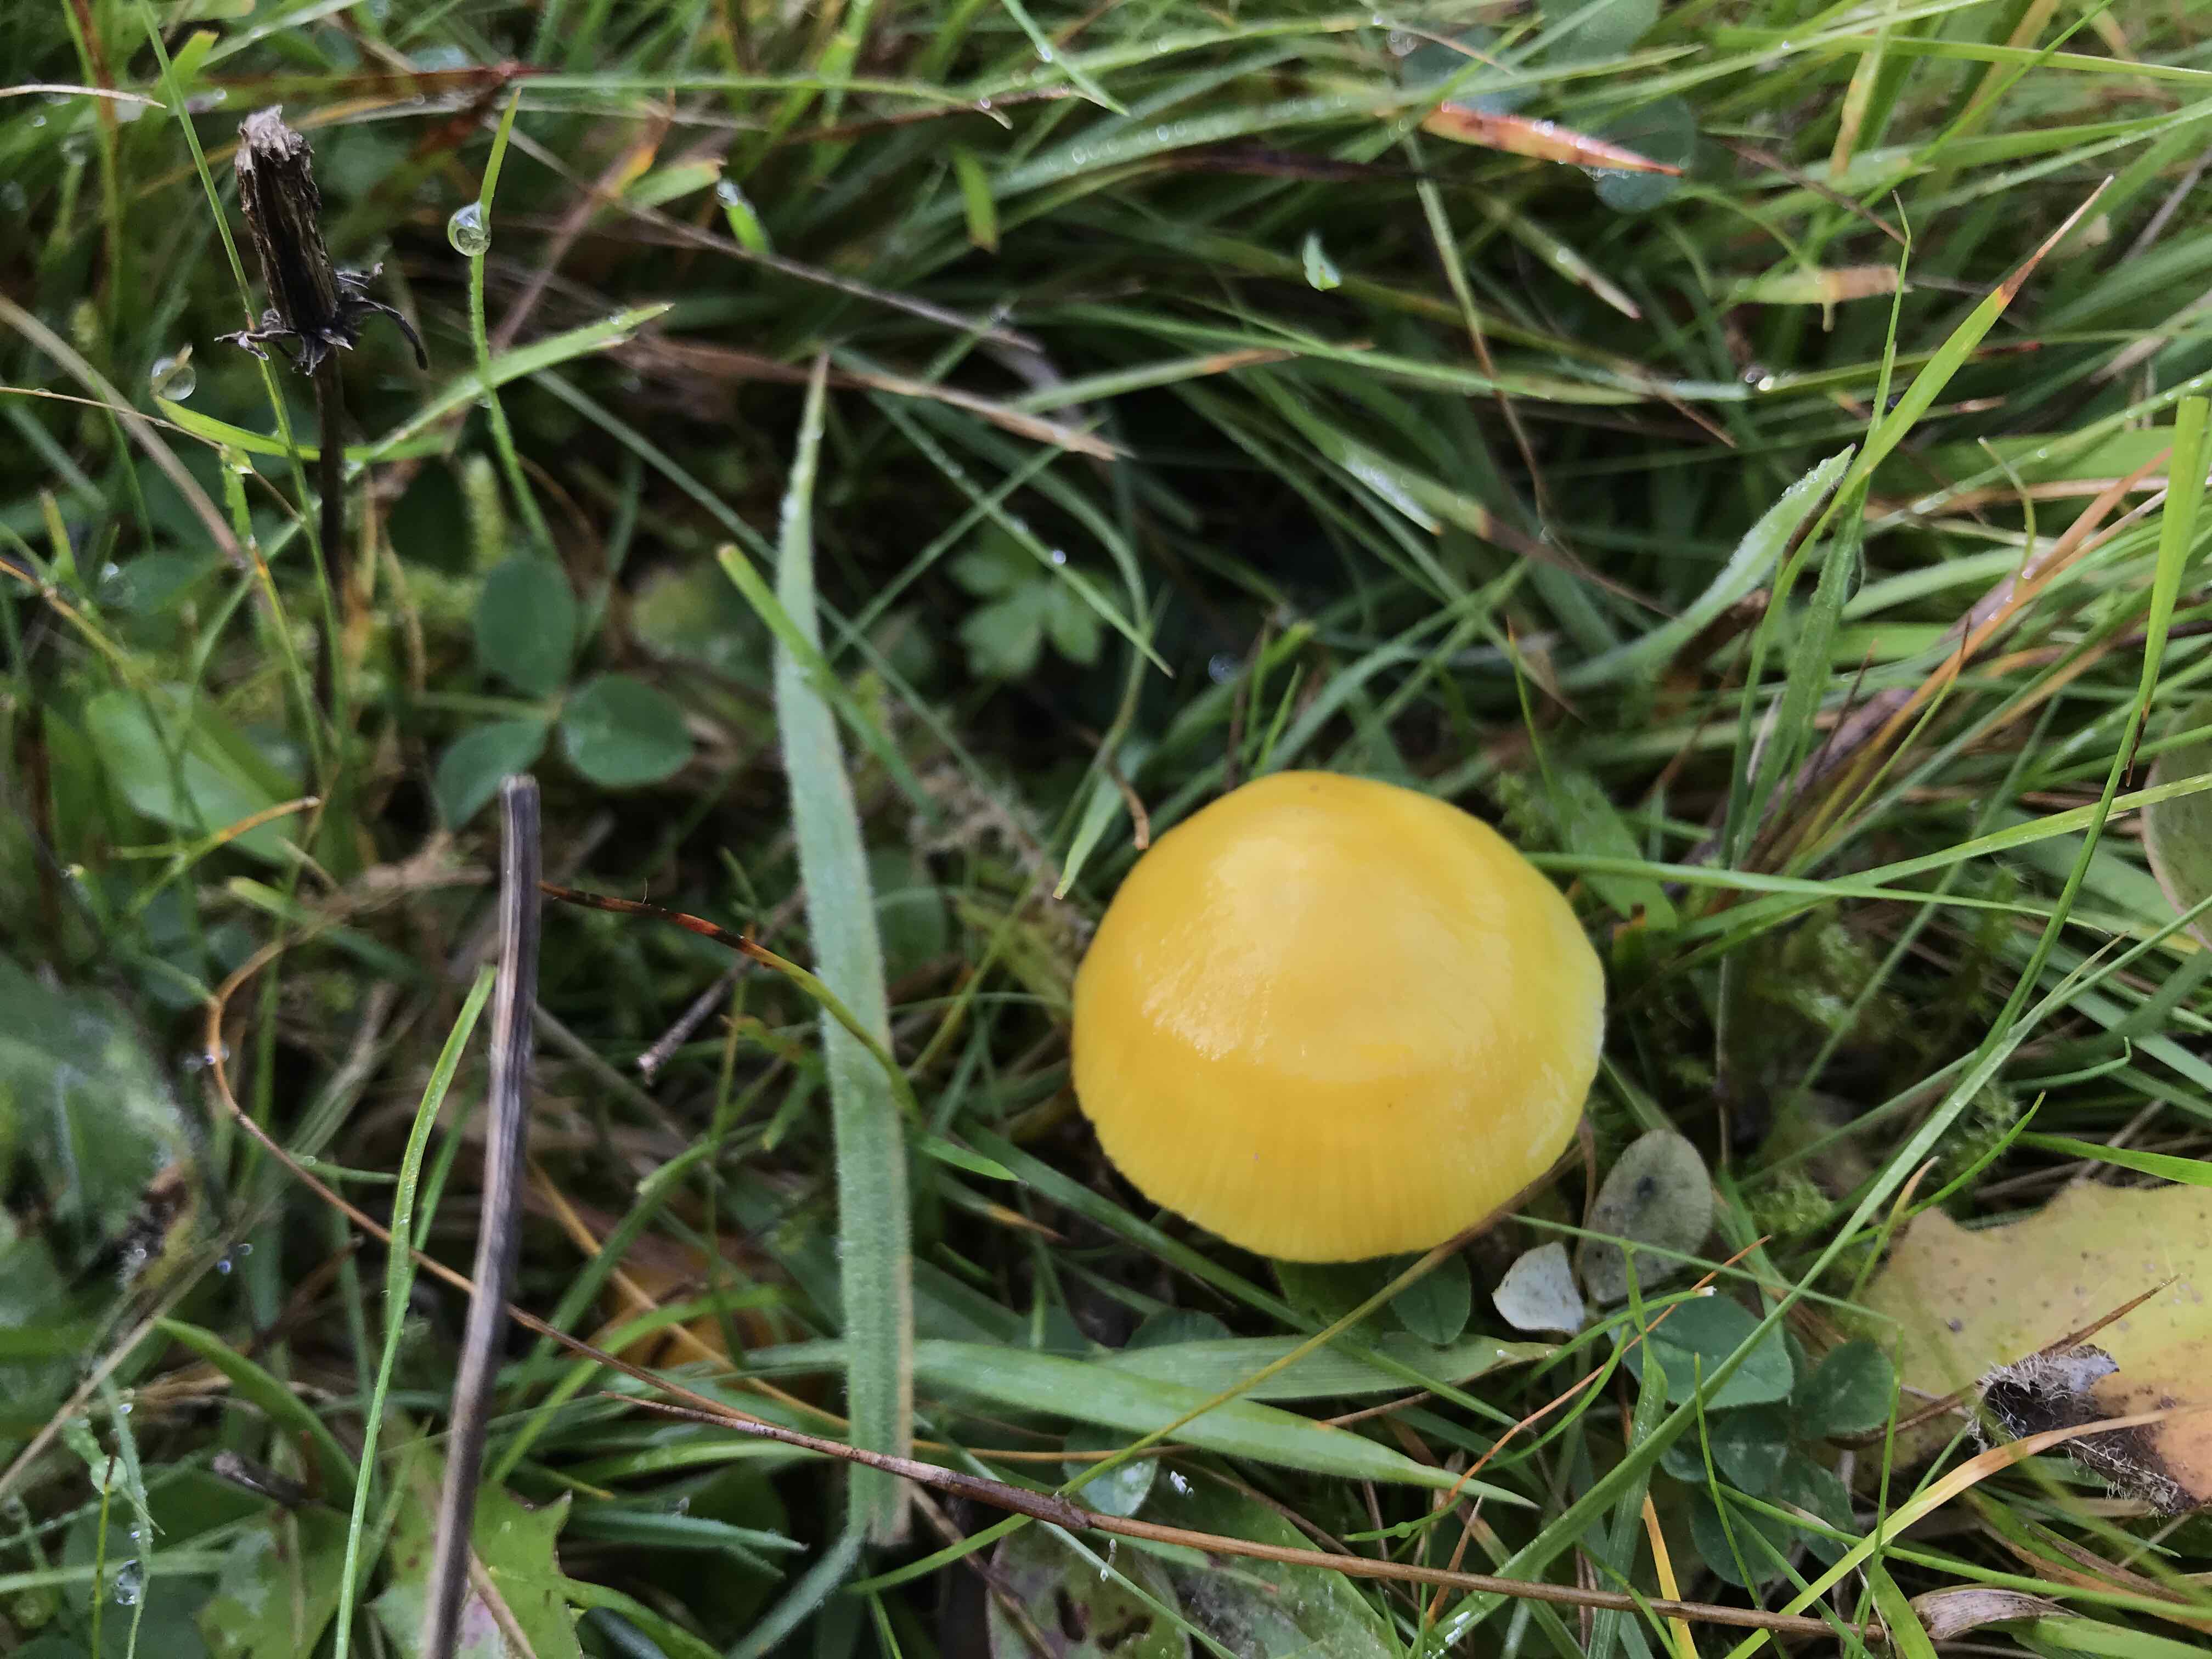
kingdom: Fungi
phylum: Basidiomycota
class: Agaricomycetes
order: Agaricales
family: Hygrophoraceae
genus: Hygrocybe
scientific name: Hygrocybe chlorophana
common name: gul vokshat
